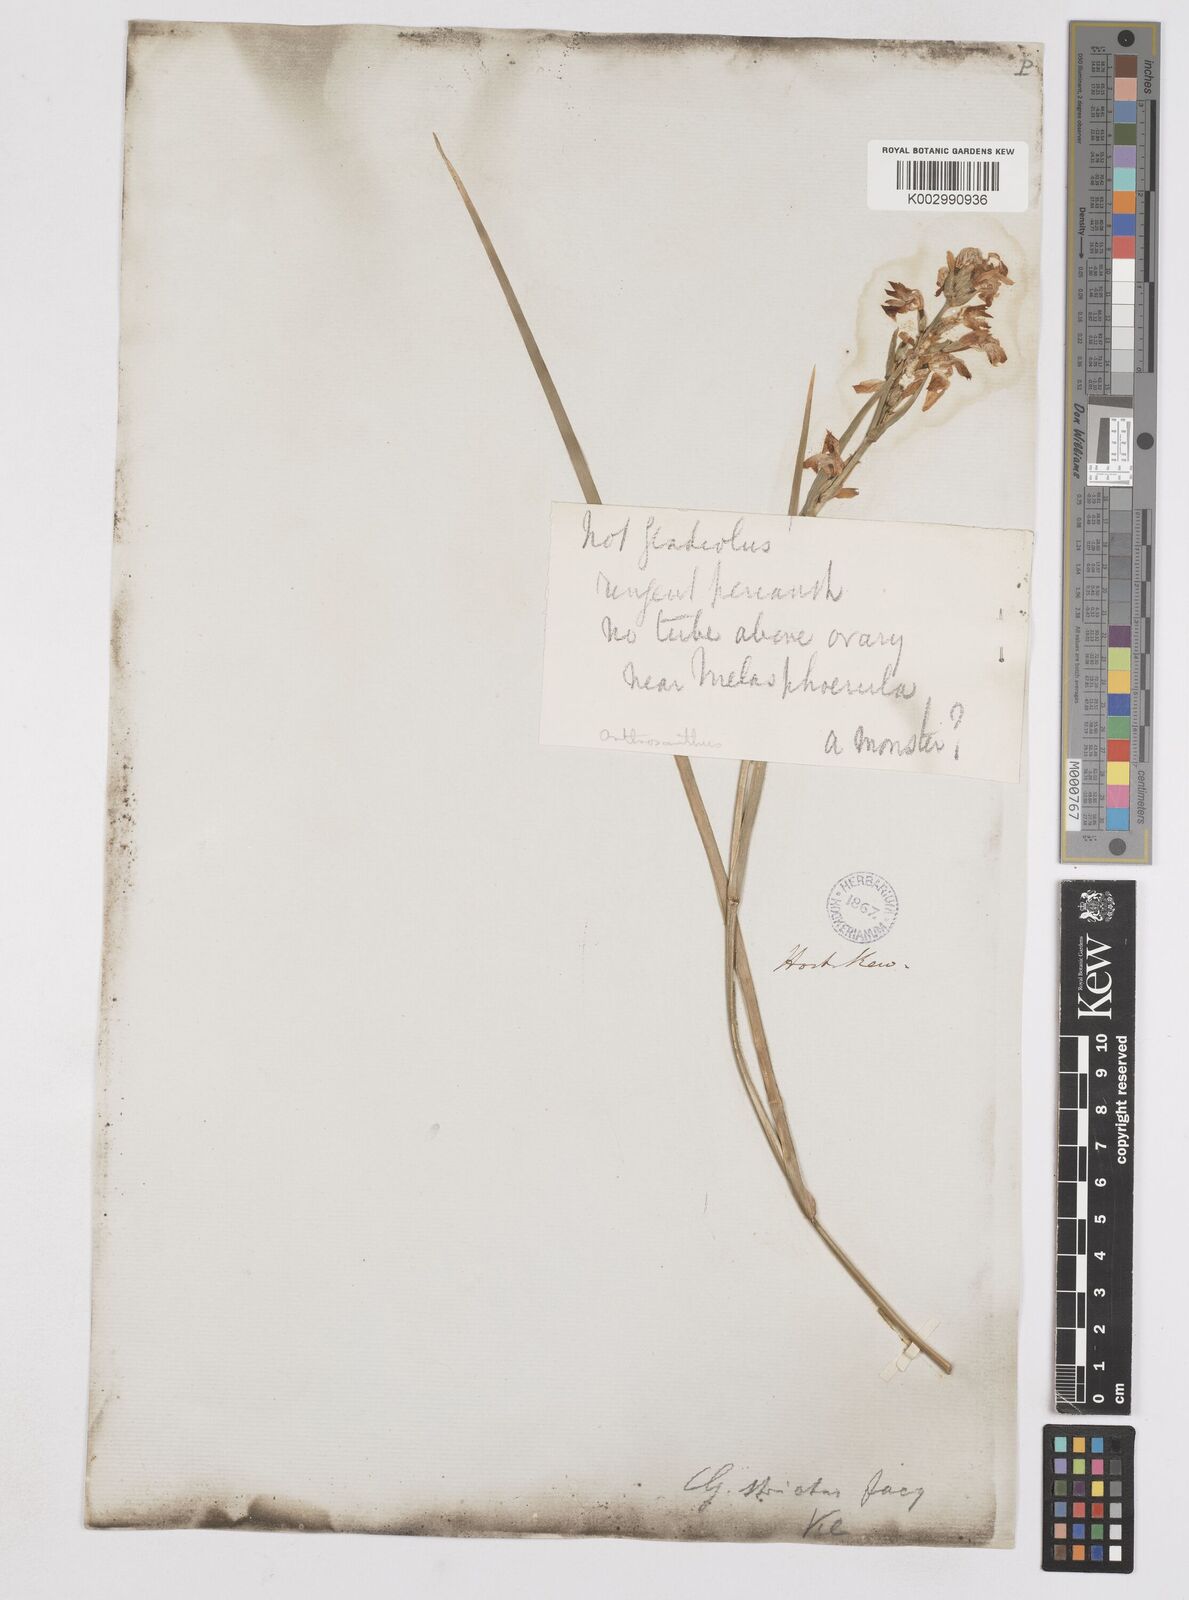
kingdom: Plantae
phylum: Tracheophyta
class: Liliopsida
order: Asparagales
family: Iridaceae
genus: Orthrosanthus
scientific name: Orthrosanthus polystachyus
